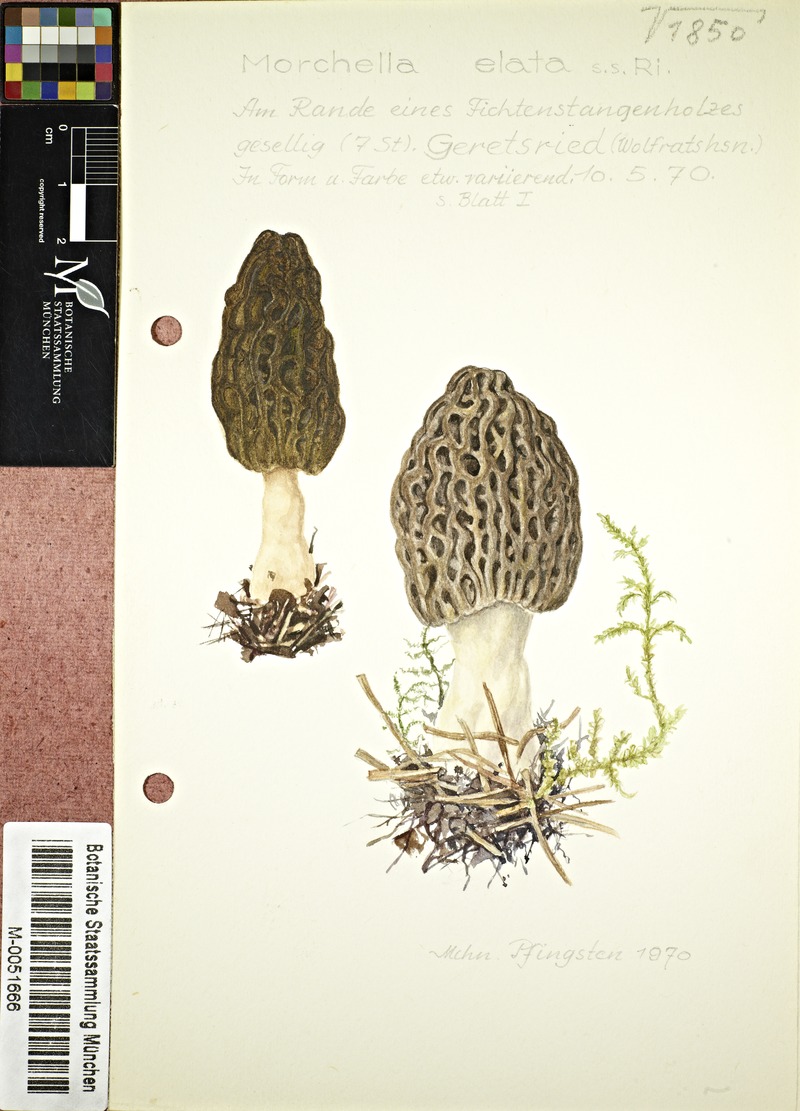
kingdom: Fungi
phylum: Ascomycota
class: Pezizomycetes
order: Pezizales
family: Morchellaceae
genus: Morchella
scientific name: Morchella elata
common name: Black morel
